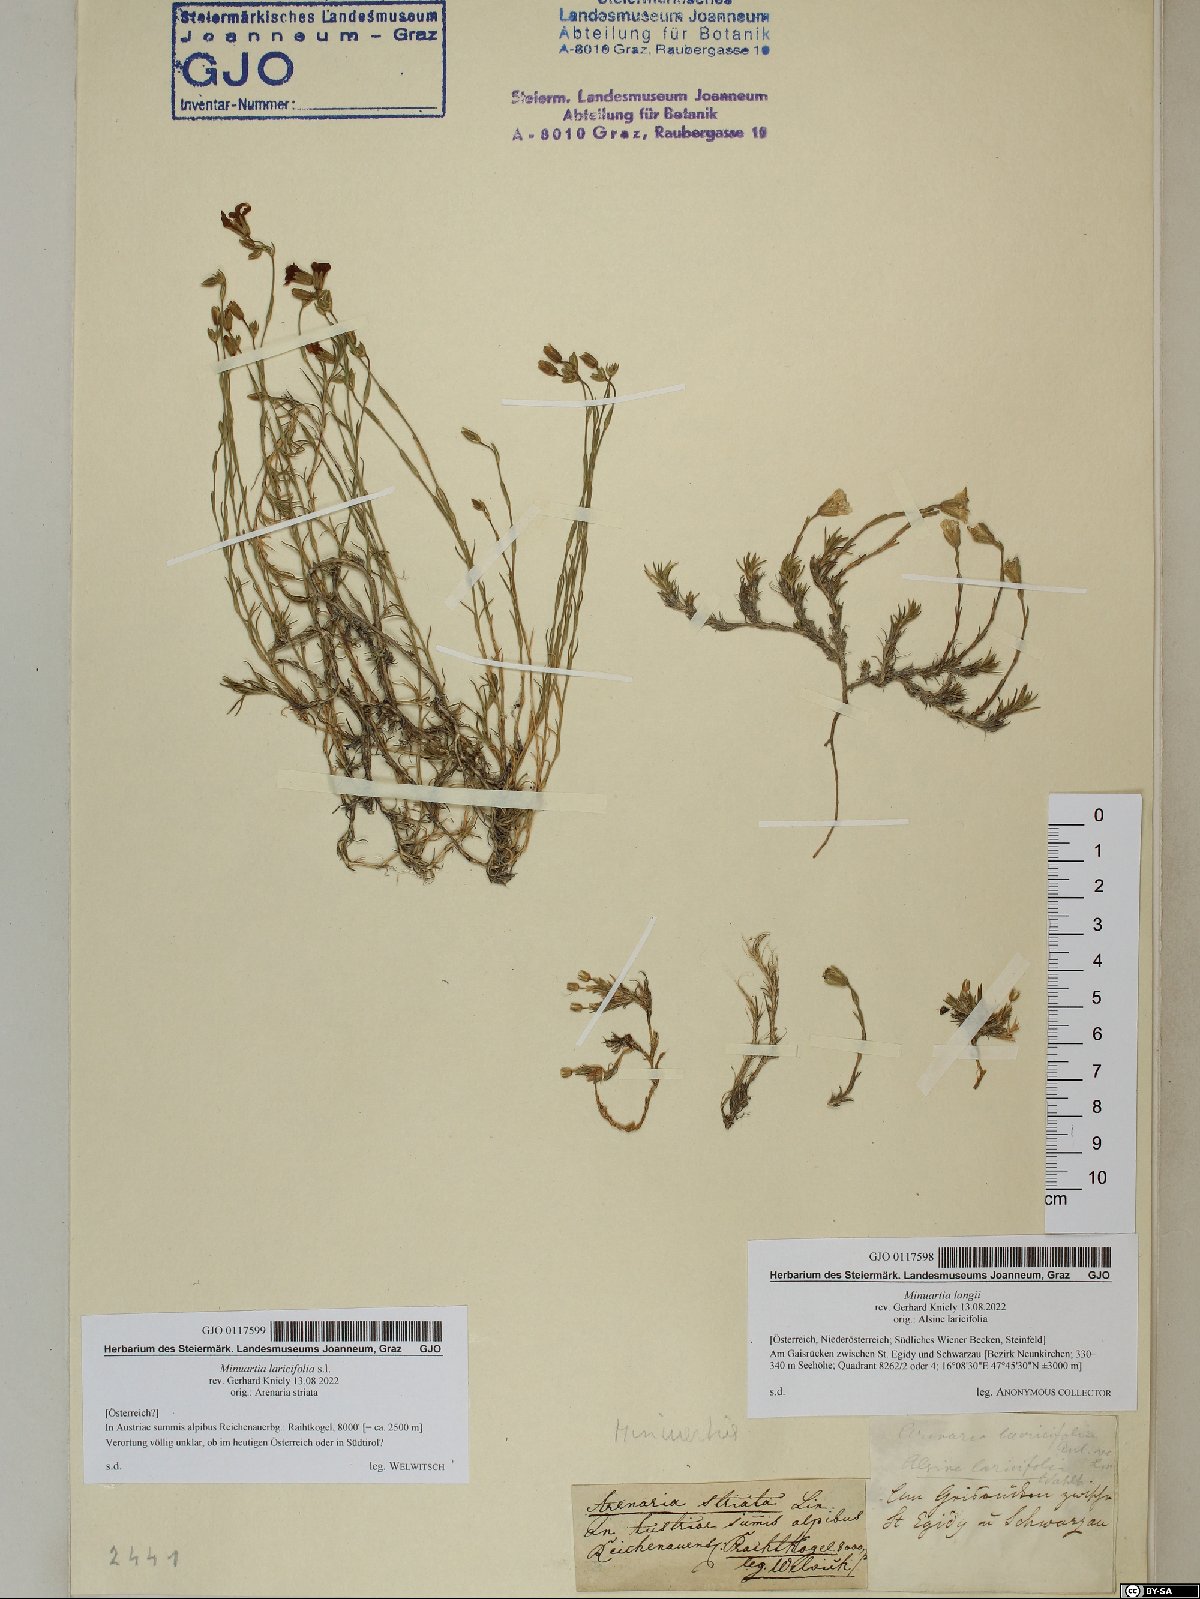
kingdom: Plantae
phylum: Tracheophyta
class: Magnoliopsida
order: Caryophyllales
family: Caryophyllaceae
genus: Cherleria
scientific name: Cherleria langii
